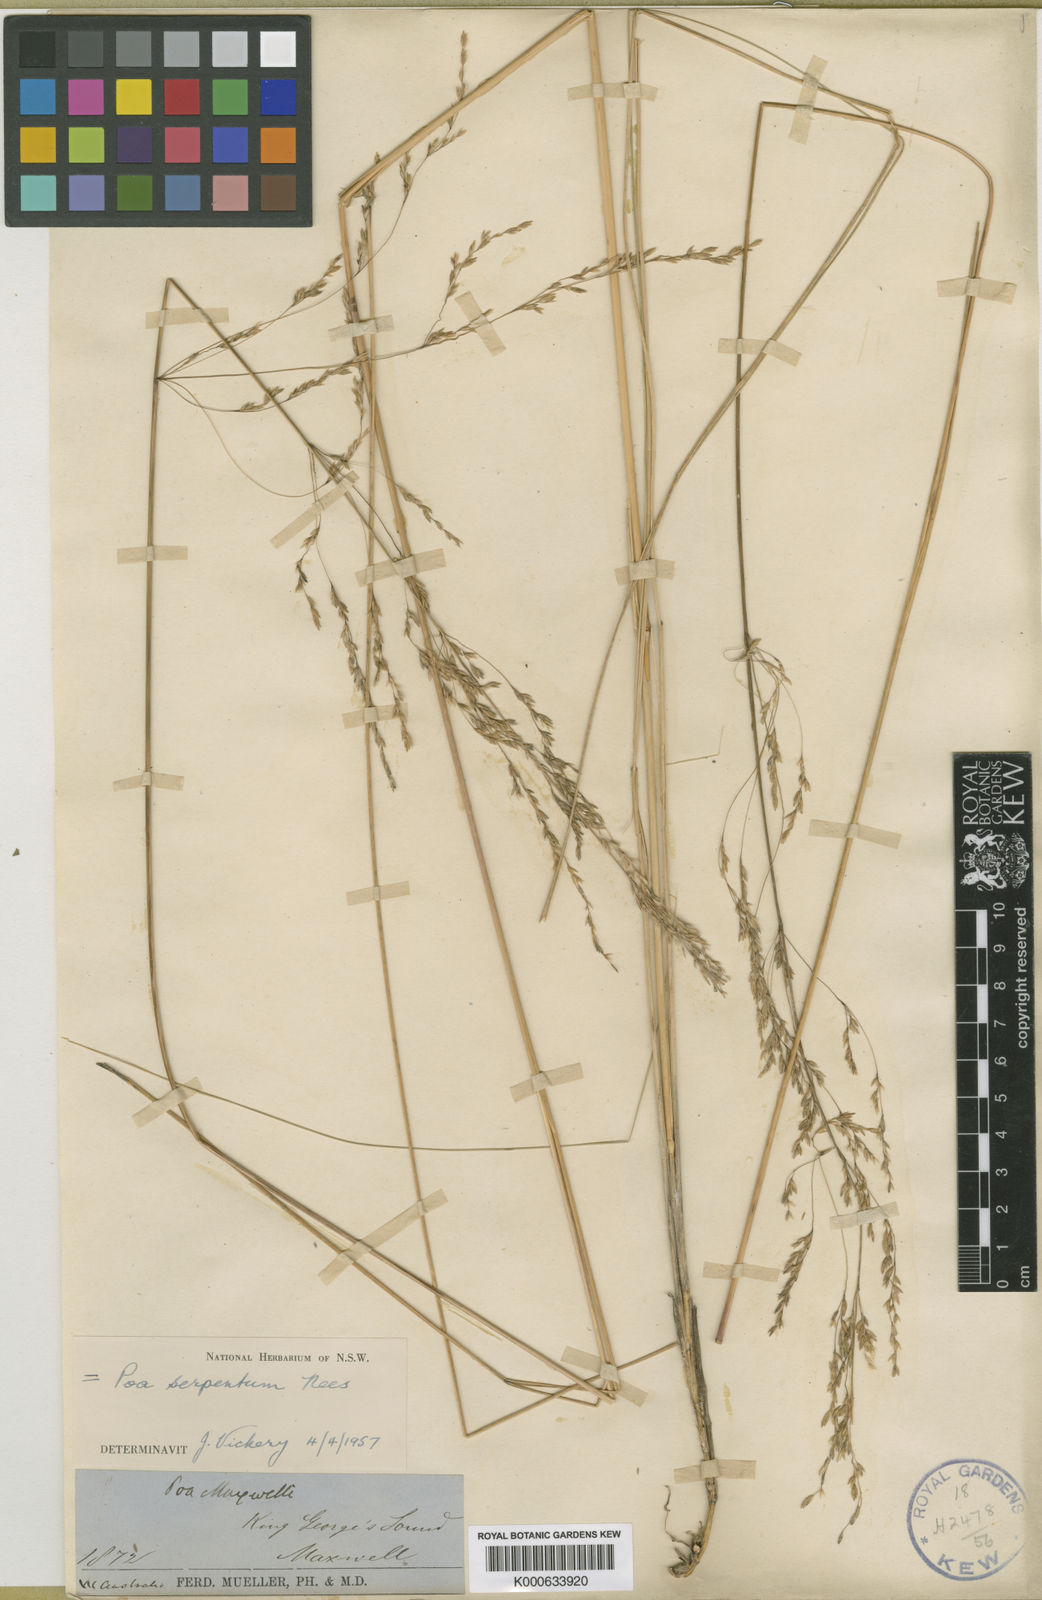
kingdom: Plantae
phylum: Tracheophyta
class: Liliopsida
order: Poales
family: Poaceae
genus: Poa
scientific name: Poa porphyroclados
